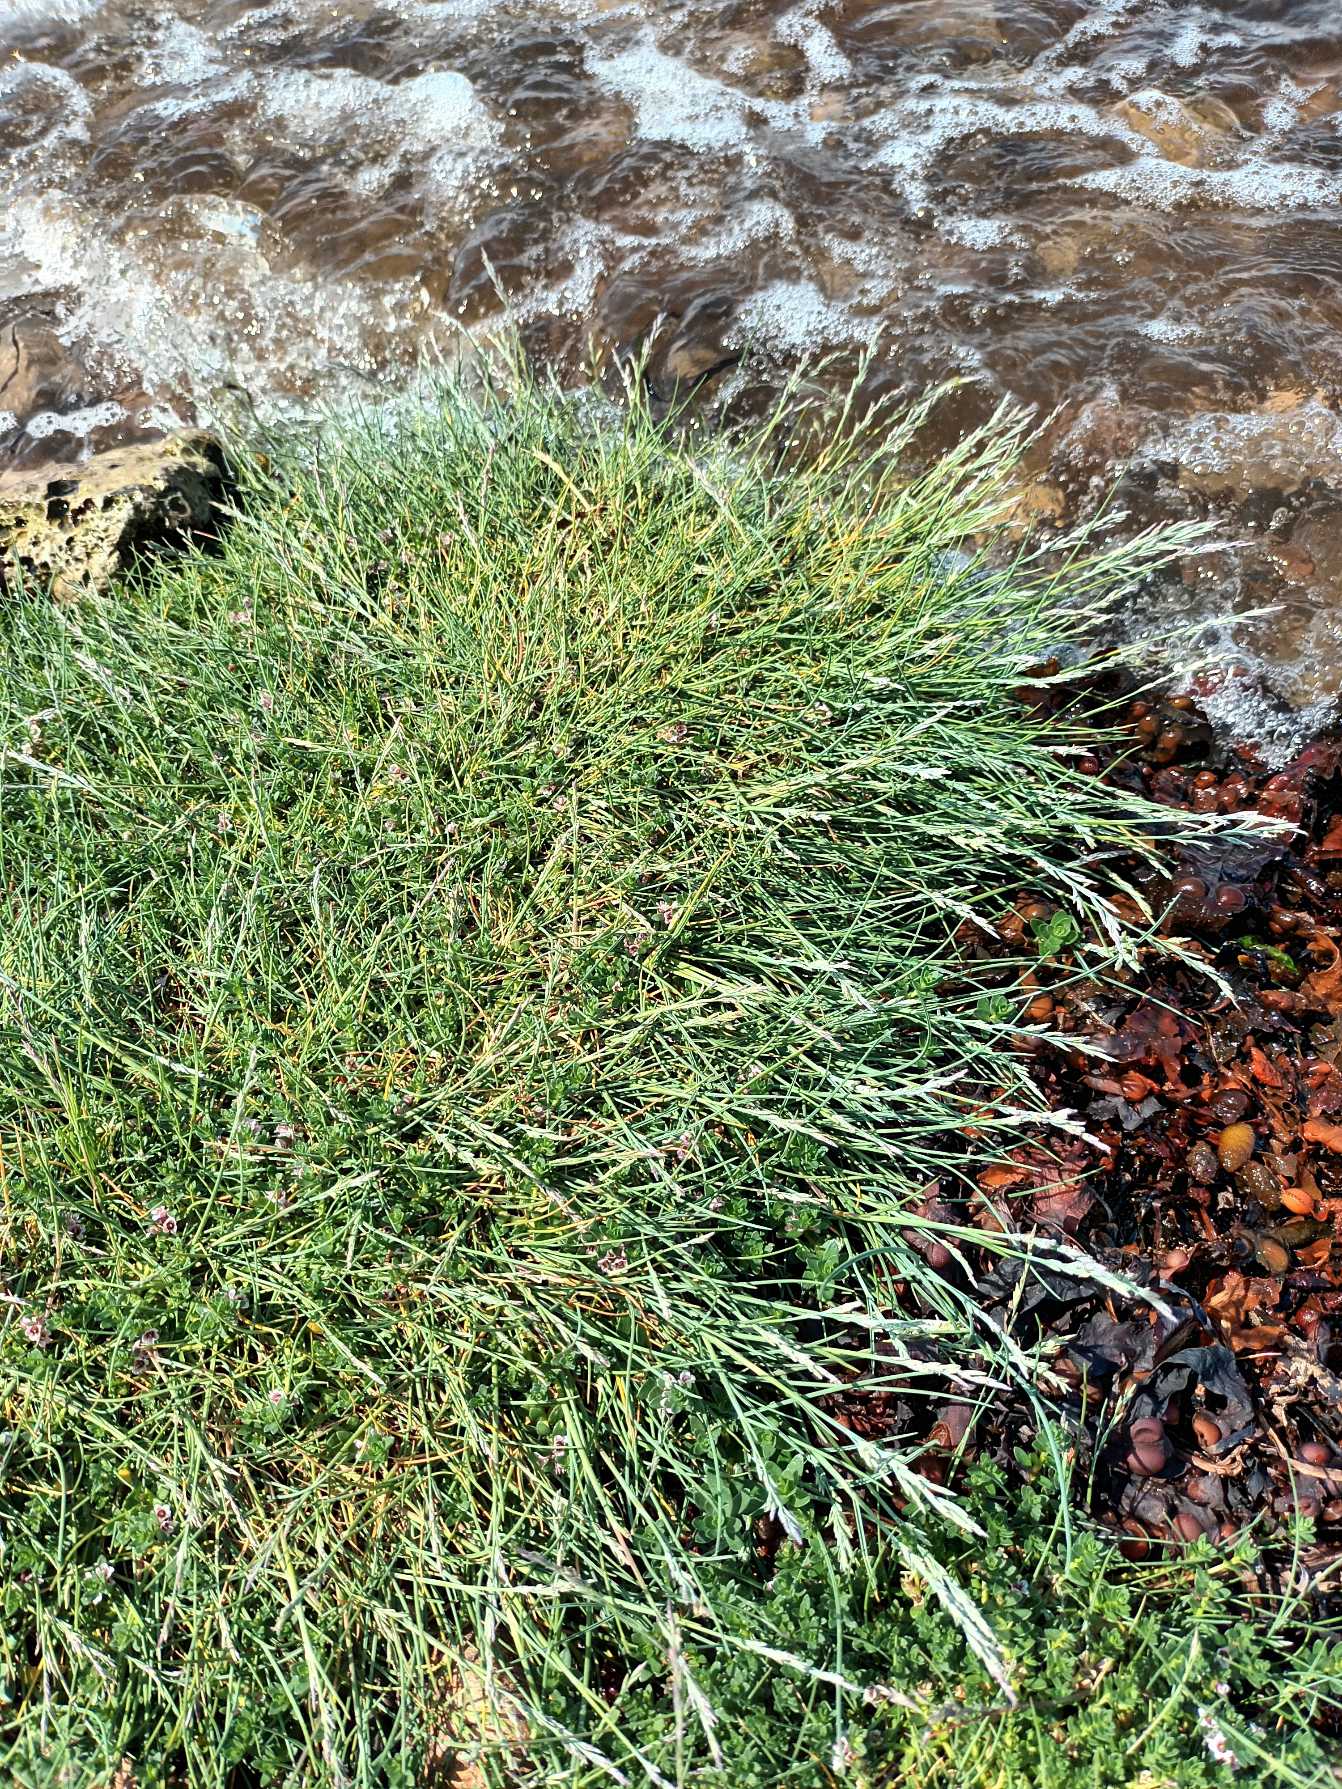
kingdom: Plantae
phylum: Tracheophyta
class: Liliopsida
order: Poales
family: Poaceae
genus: Puccinellia
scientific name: Puccinellia maritima
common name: Strand-annelgræs
